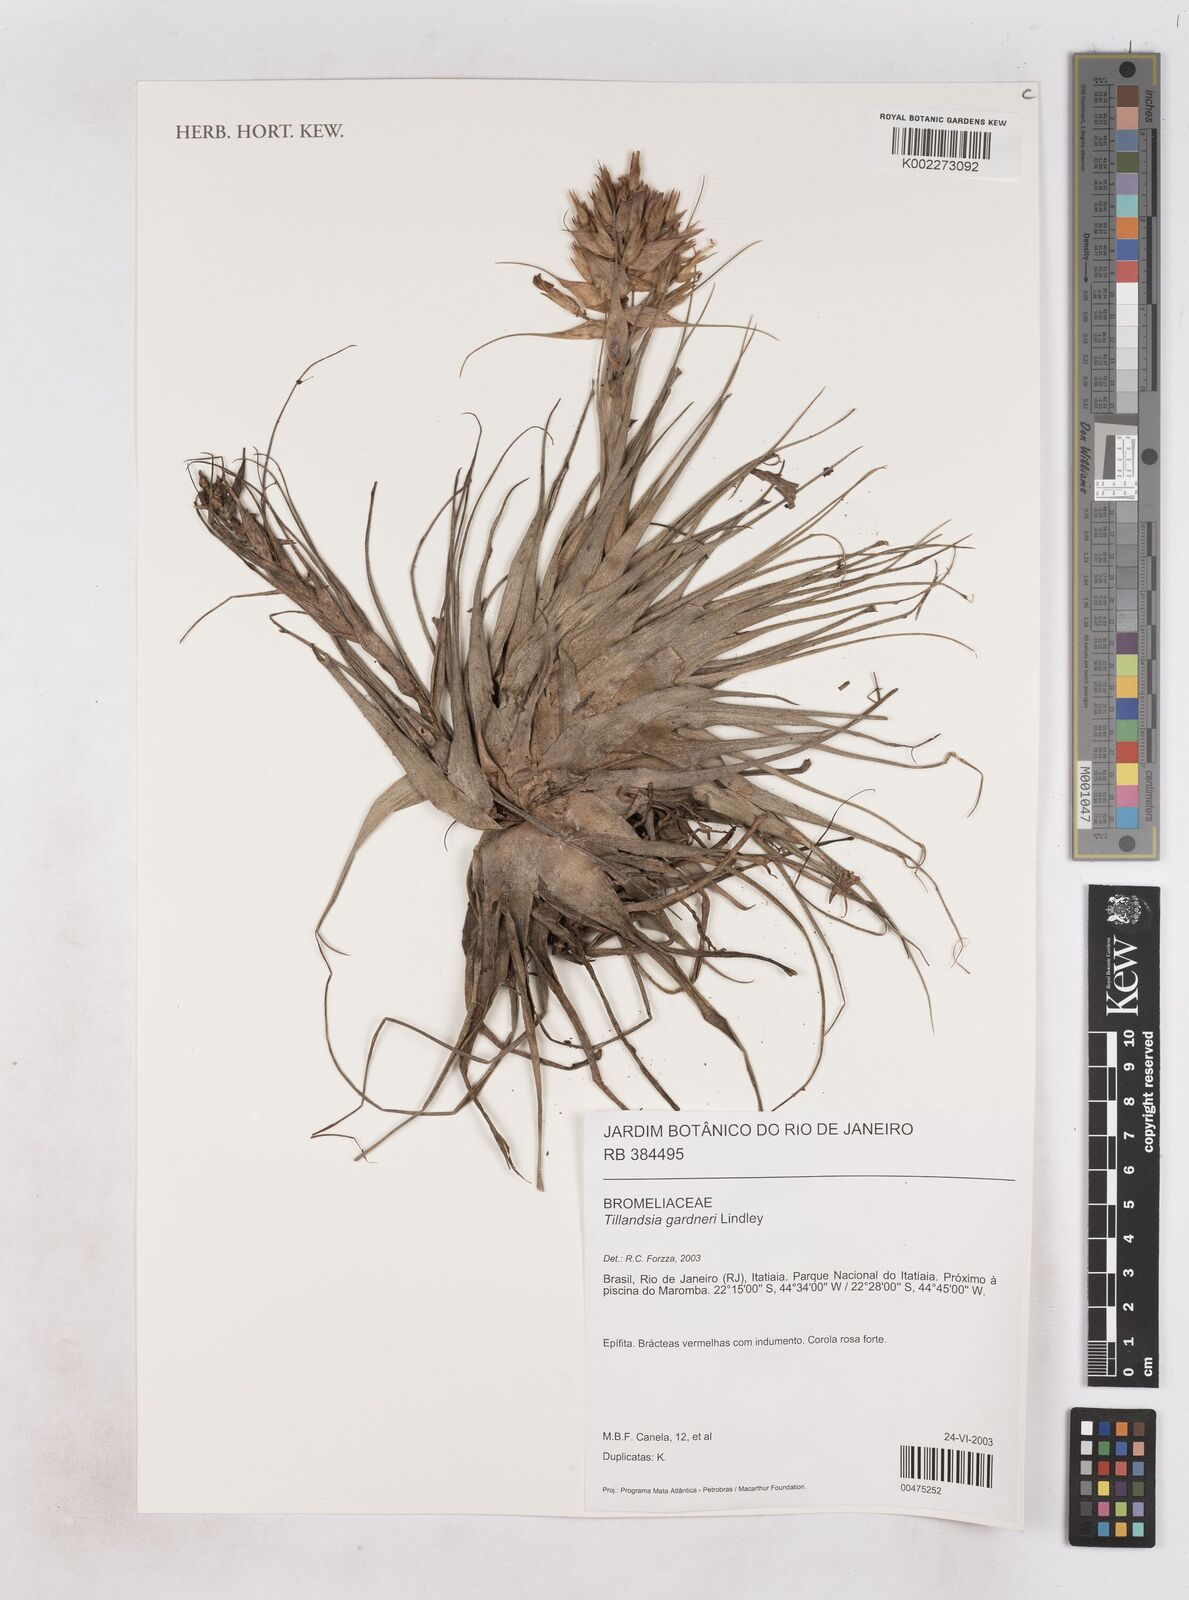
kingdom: Plantae
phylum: Tracheophyta
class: Liliopsida
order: Poales
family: Bromeliaceae
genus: Tillandsia
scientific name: Tillandsia gardneri
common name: Airplant
